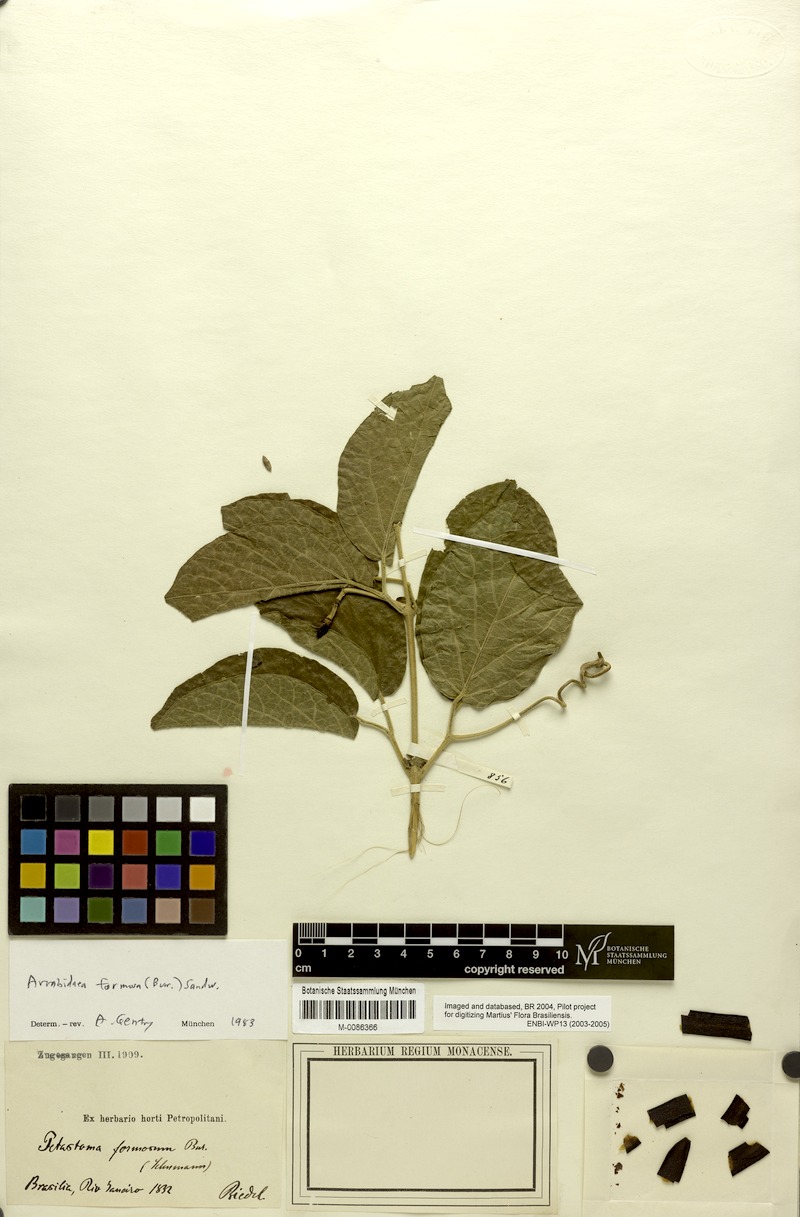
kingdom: Plantae
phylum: Tracheophyta
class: Magnoliopsida
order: Lamiales
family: Bignoniaceae
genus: Fridericia
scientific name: Fridericia formosa
